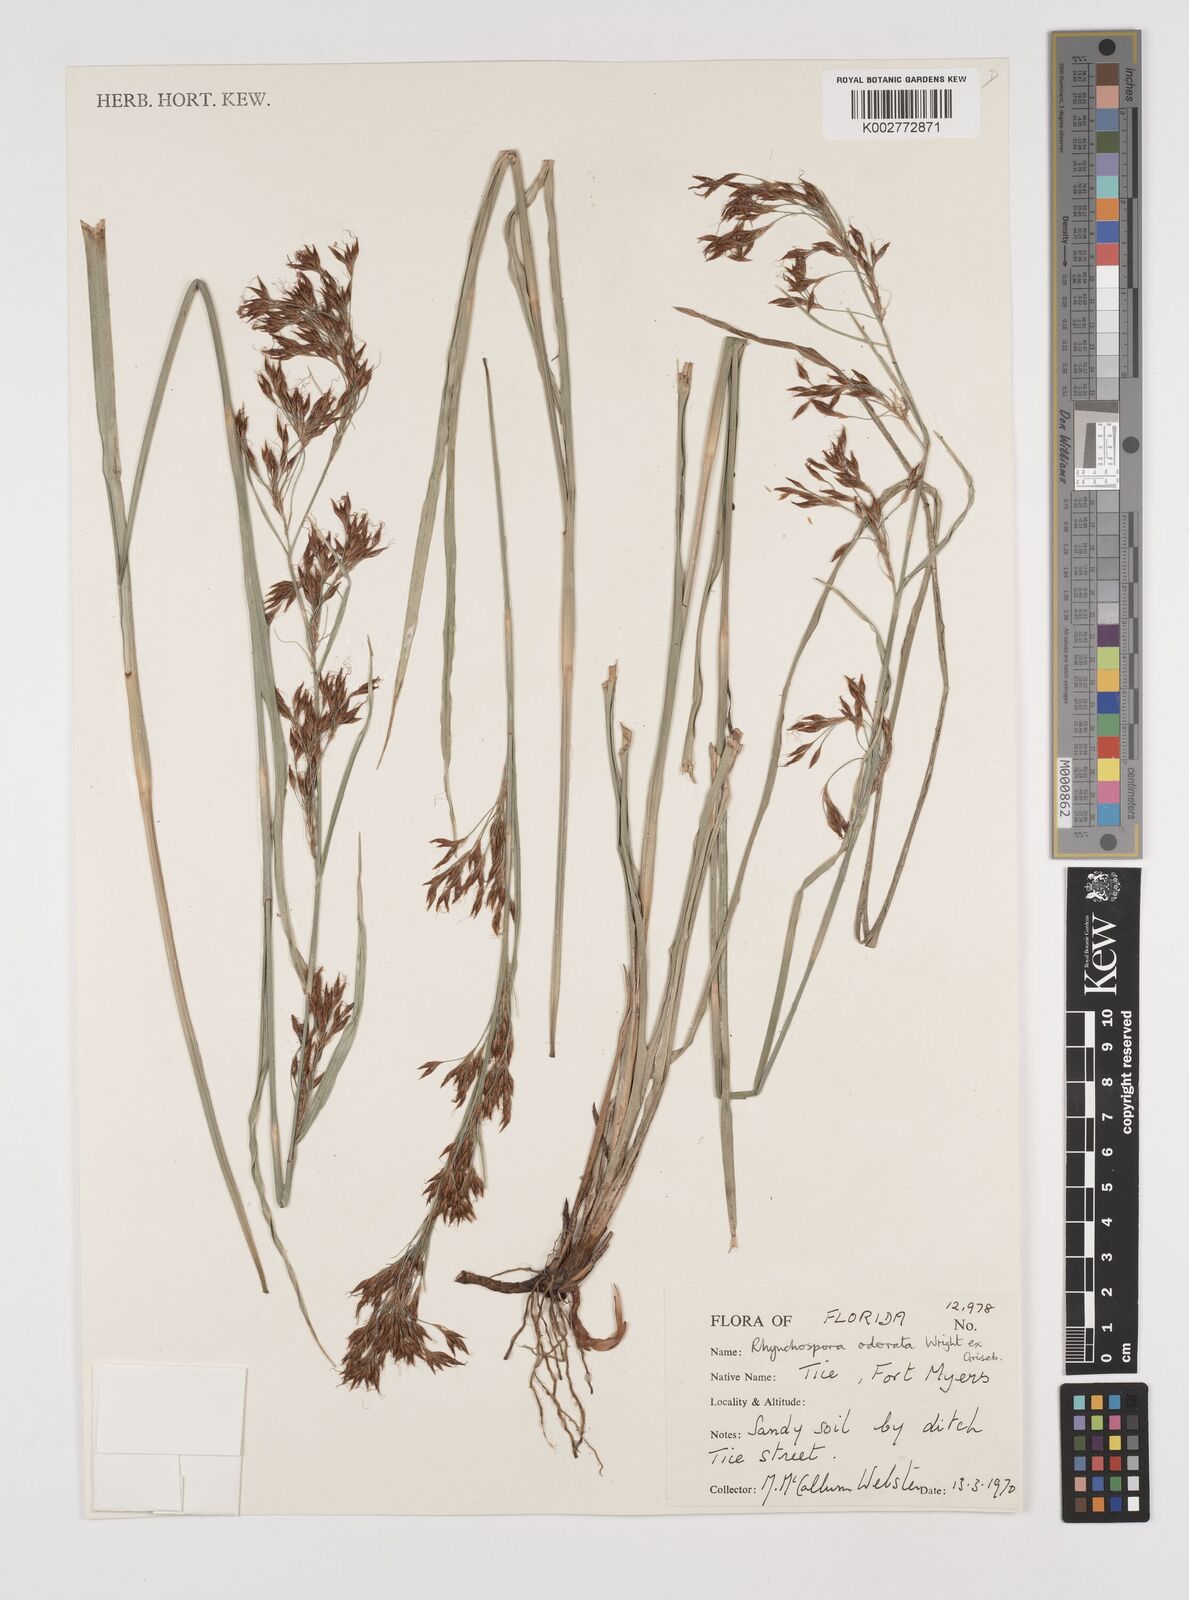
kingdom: Plantae
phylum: Tracheophyta
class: Liliopsida
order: Poales
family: Cyperaceae
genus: Rhynchospora
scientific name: Rhynchospora odorata
